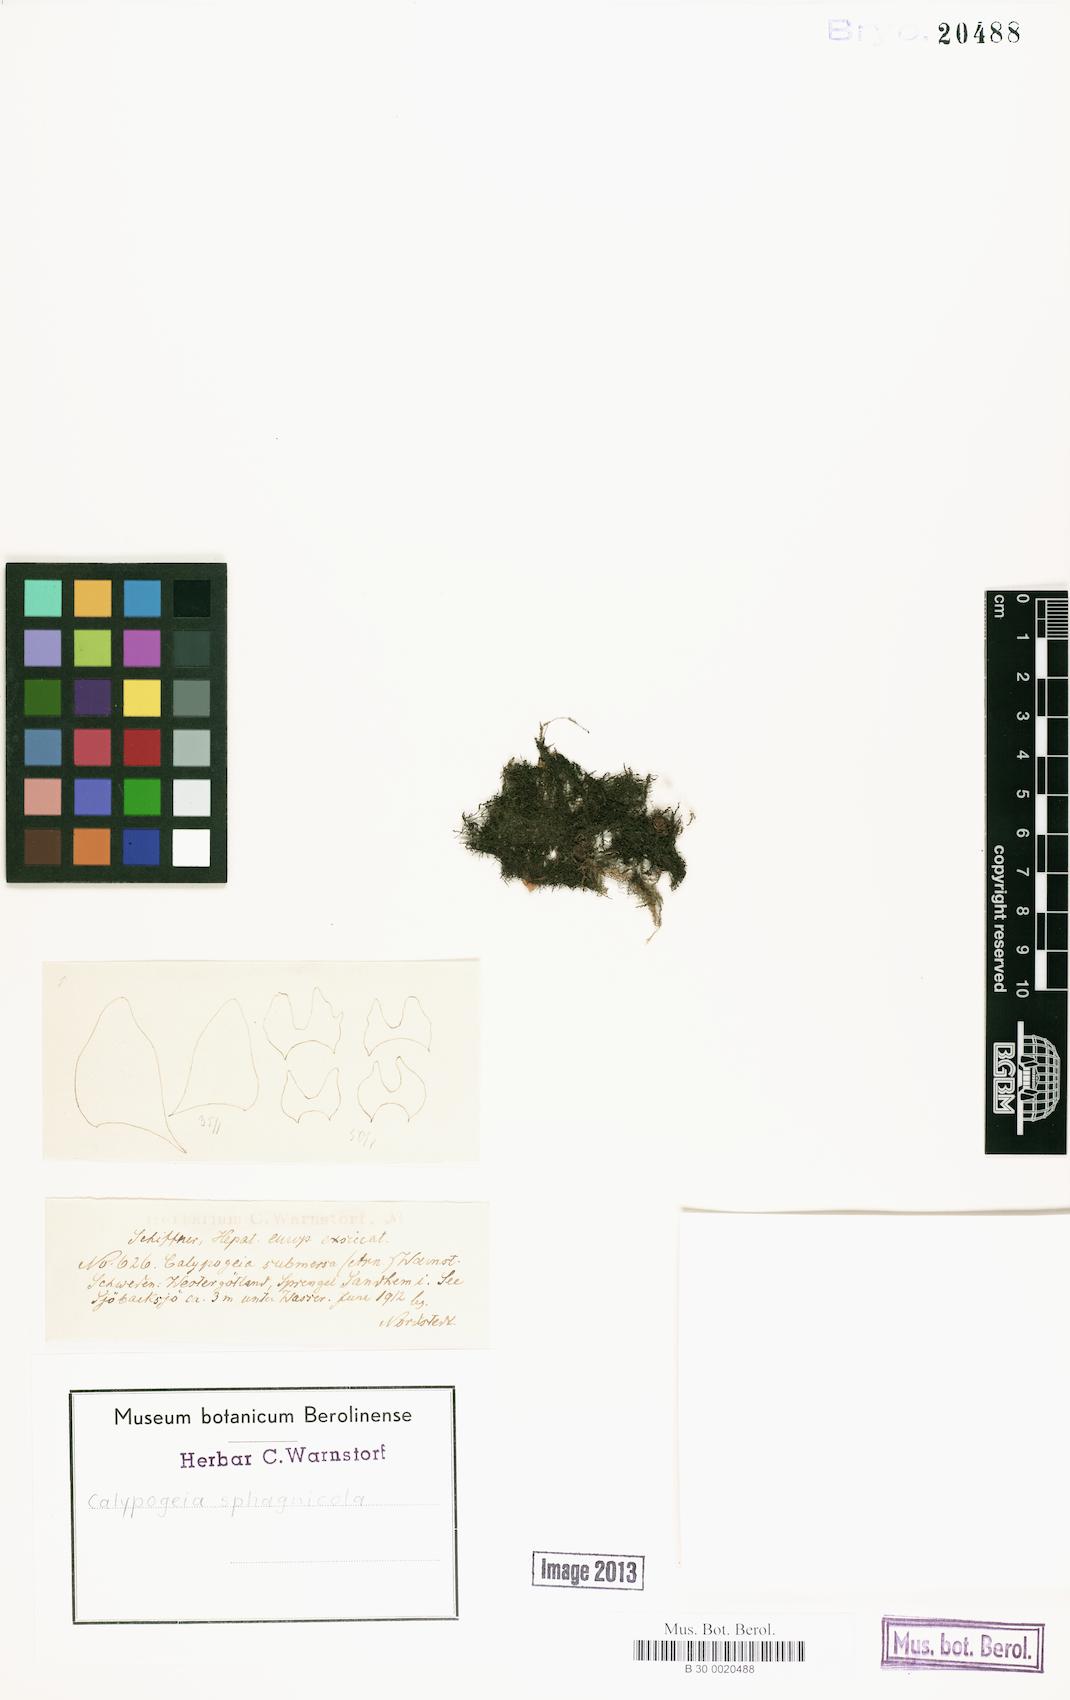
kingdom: Plantae
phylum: Marchantiophyta
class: Jungermanniopsida
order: Jungermanniales
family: Calypogeiaceae
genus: Calypogeia
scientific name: Calypogeia sphagnicola
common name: Bog pouchwort
